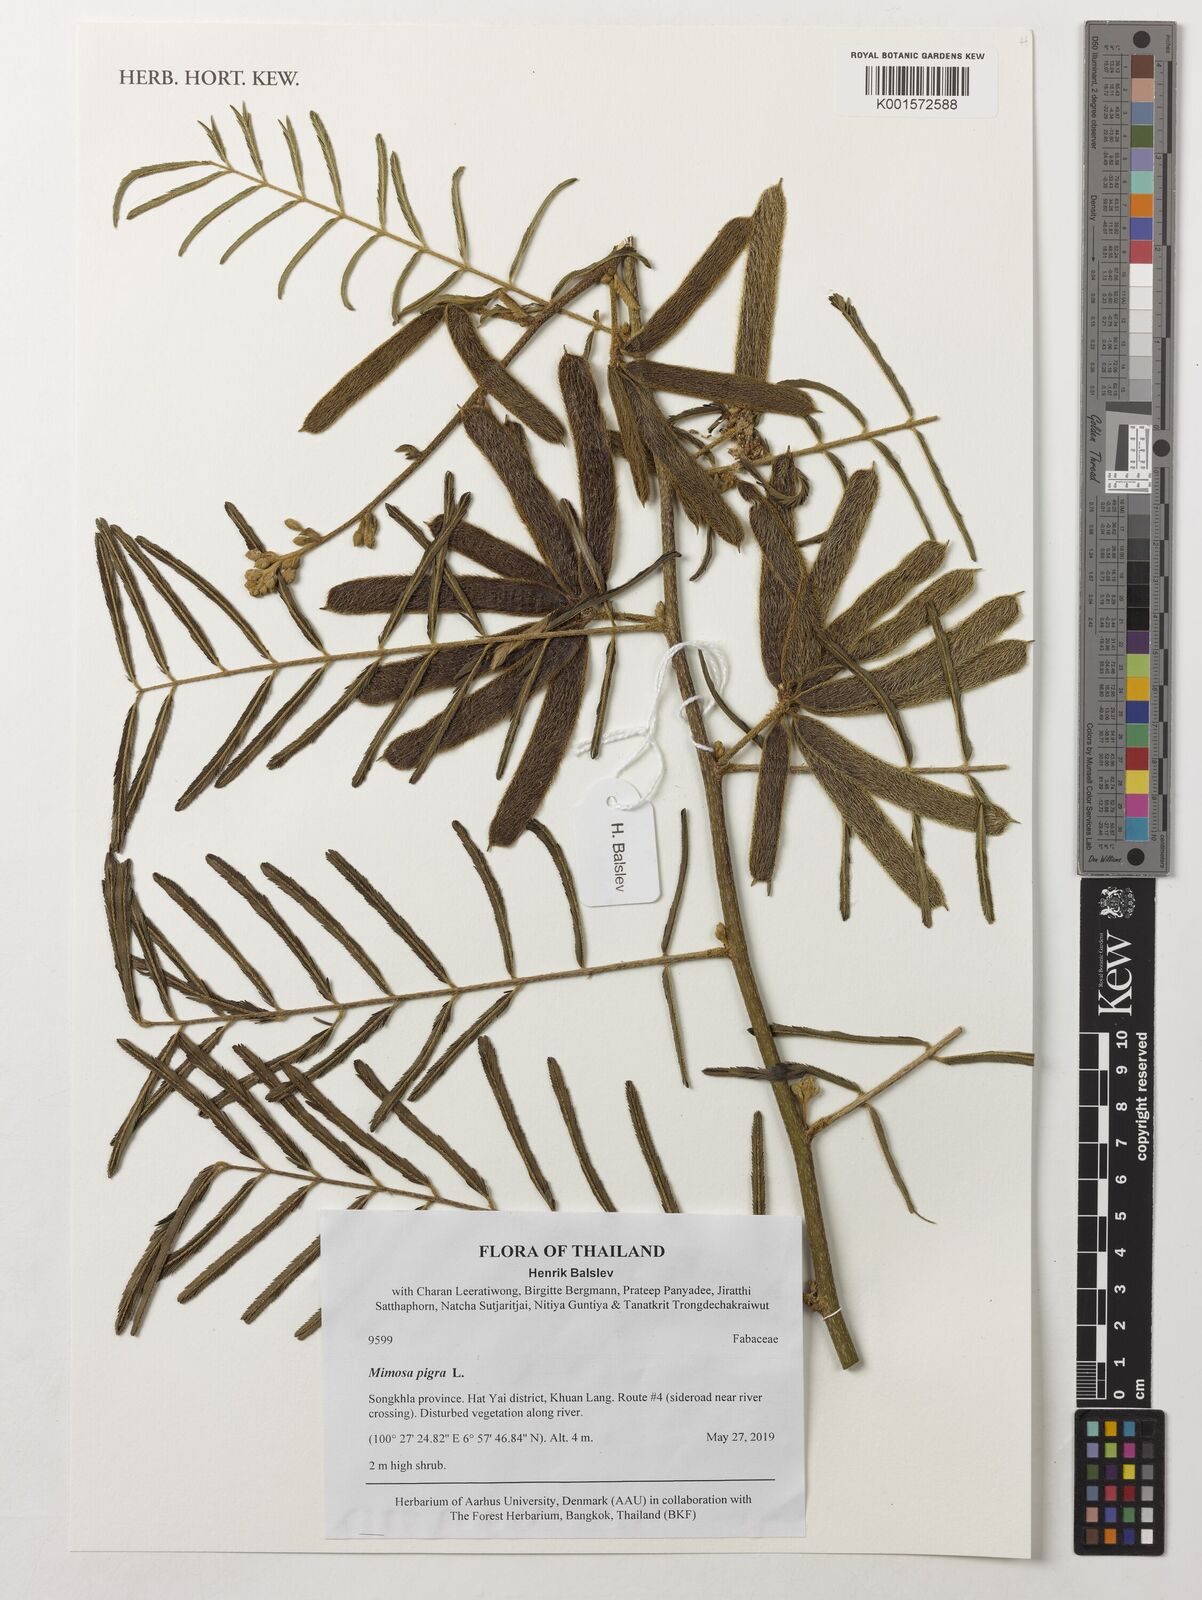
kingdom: Plantae
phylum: Tracheophyta
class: Magnoliopsida
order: Fabales
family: Fabaceae
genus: Mimosa
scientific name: Mimosa pigra
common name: Black mimosa
